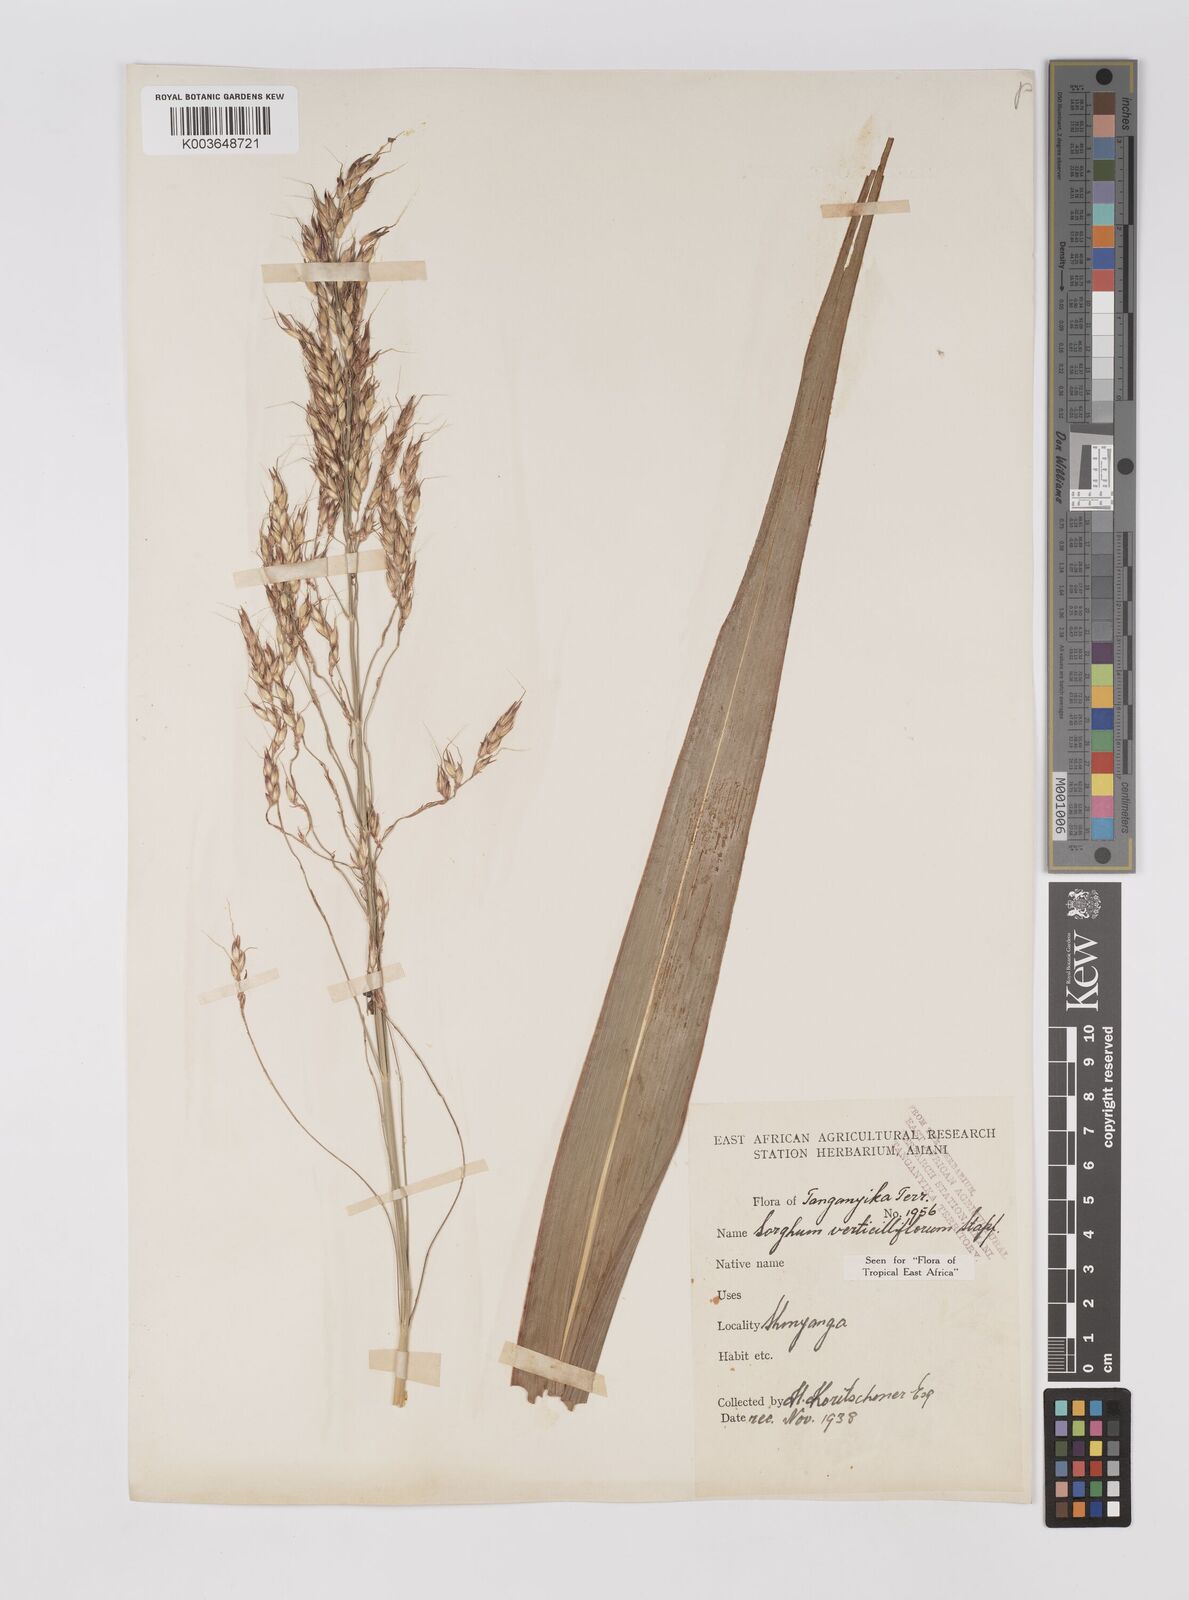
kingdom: Plantae
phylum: Tracheophyta
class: Liliopsida
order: Poales
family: Poaceae
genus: Sorghum
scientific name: Sorghum arundinaceum
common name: Sorghum
